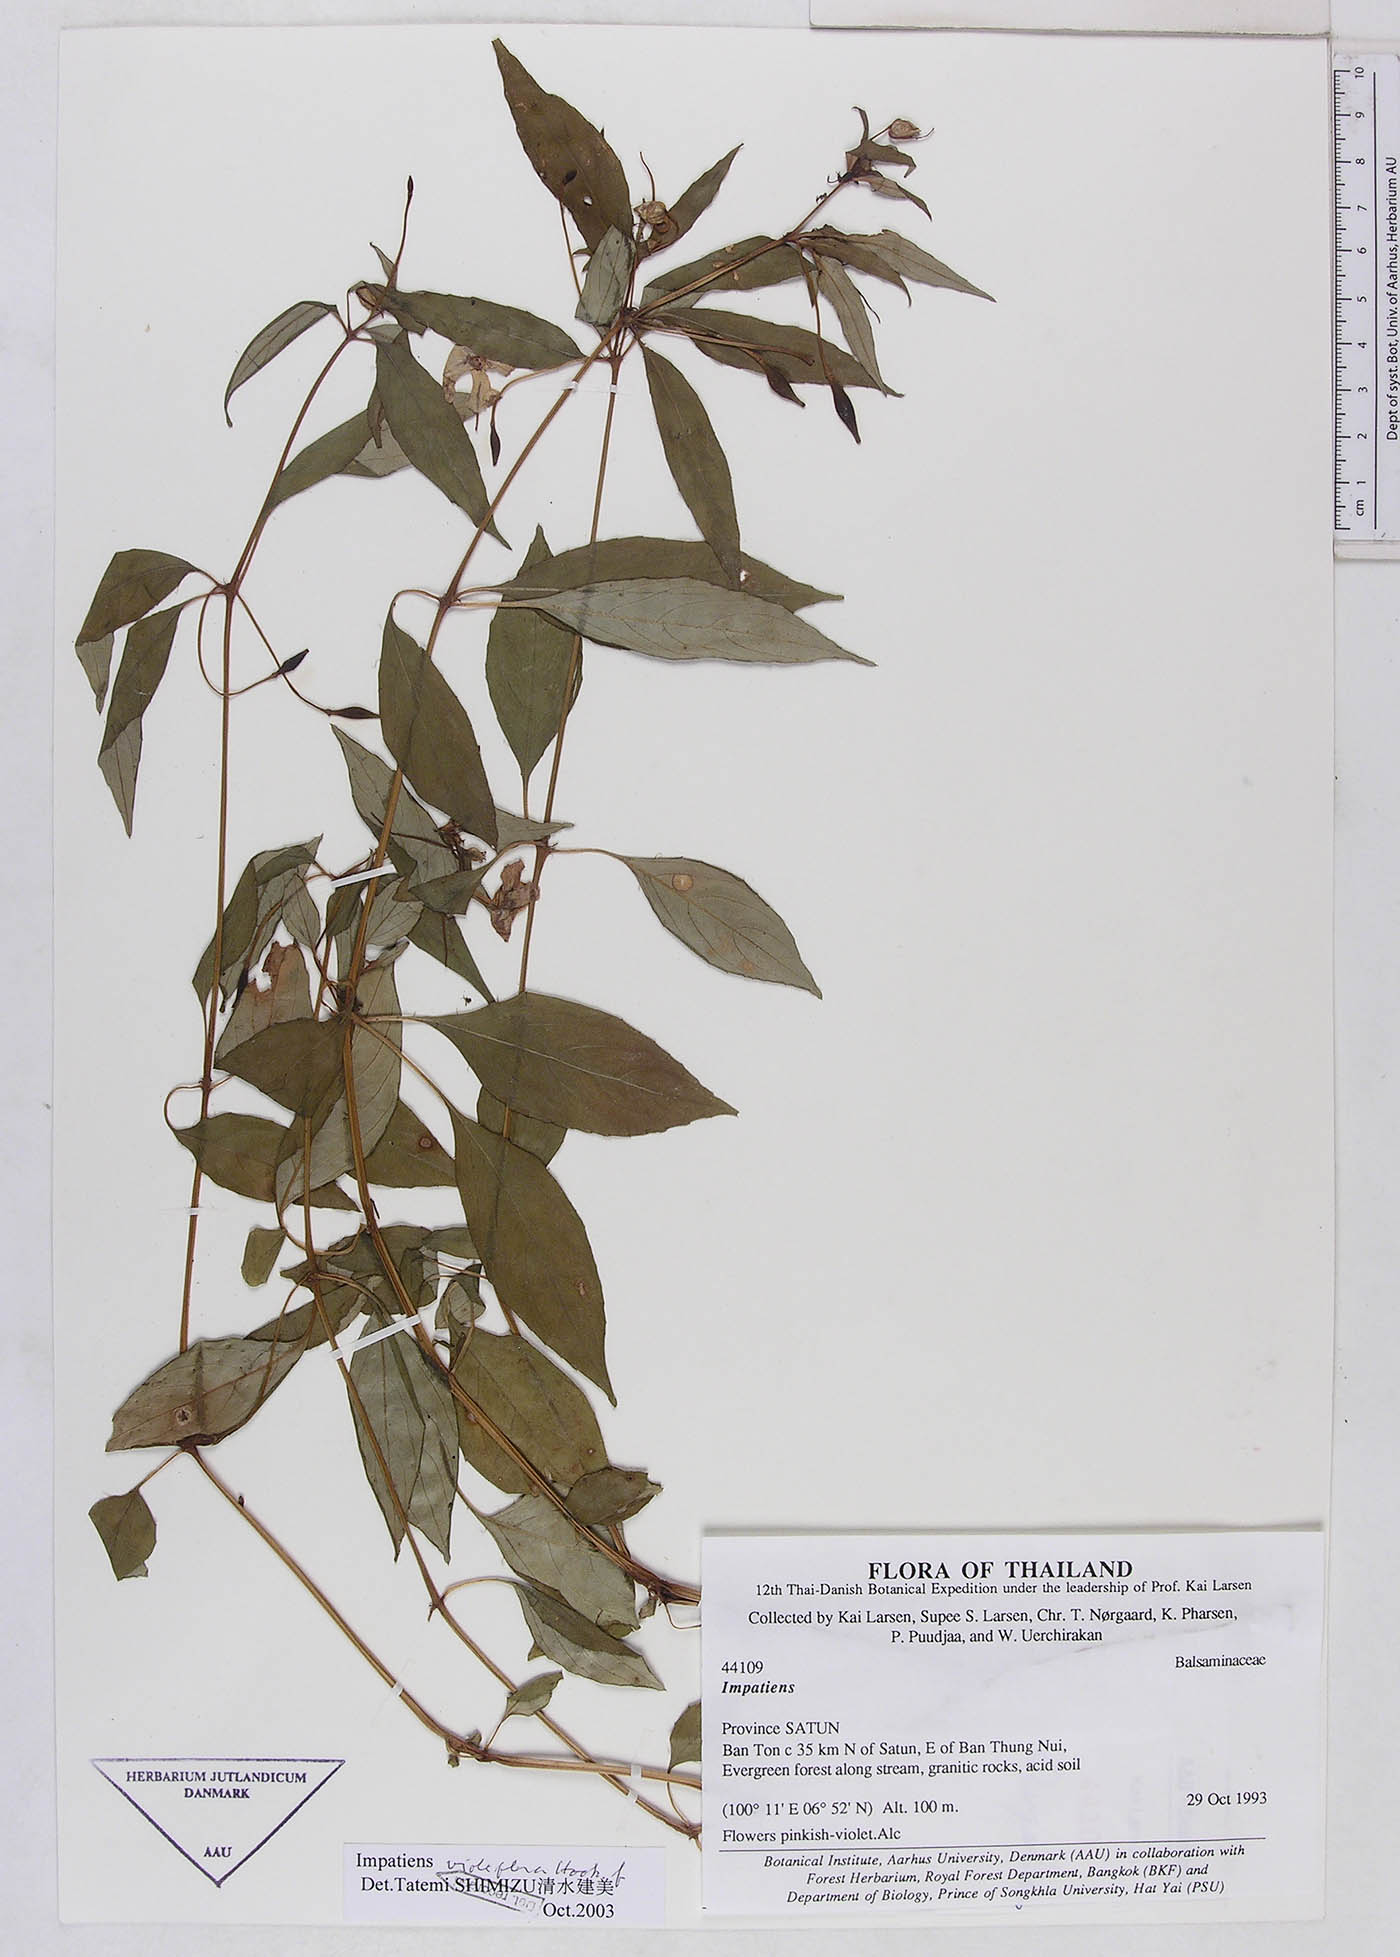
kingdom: Plantae
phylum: Tracheophyta
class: Magnoliopsida
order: Ericales
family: Balsaminaceae
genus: Impatiens
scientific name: Impatiens platypetala
